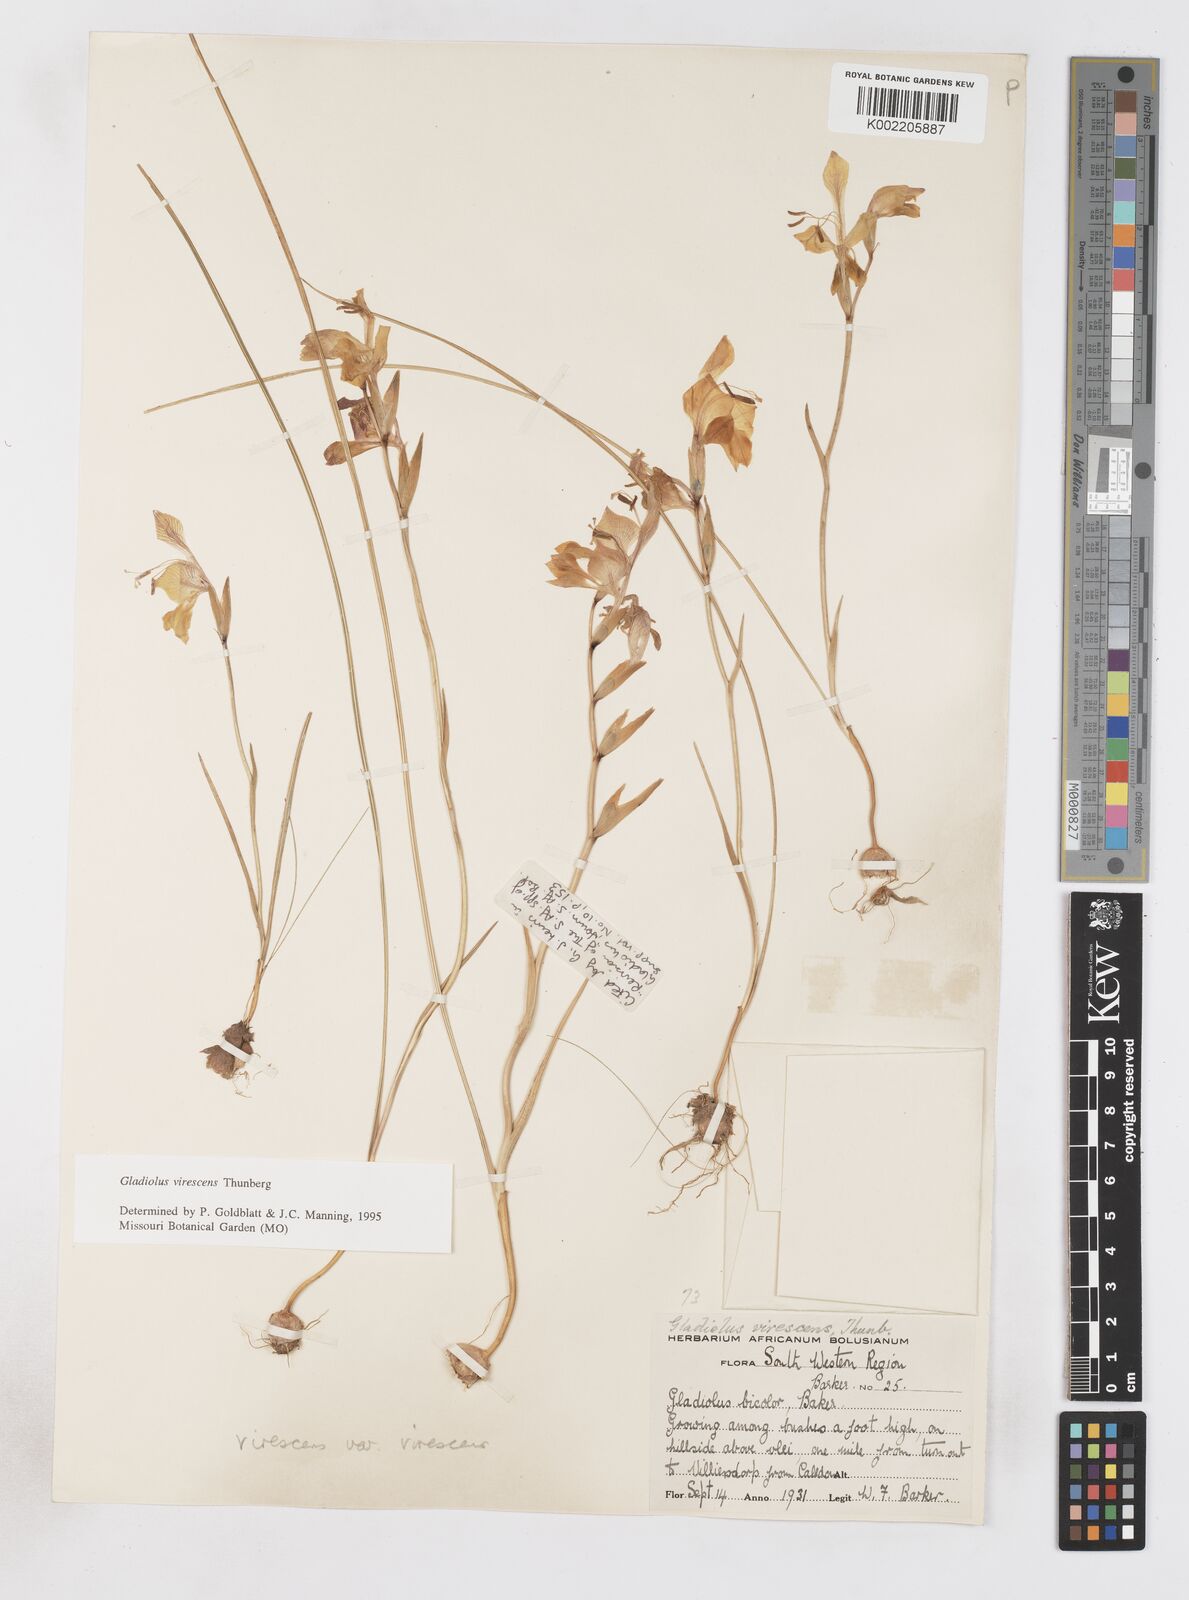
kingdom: Plantae
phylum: Tracheophyta
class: Liliopsida
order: Asparagales
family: Iridaceae
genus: Gladiolus
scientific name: Gladiolus virescens
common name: Yellow kalkoentjie
